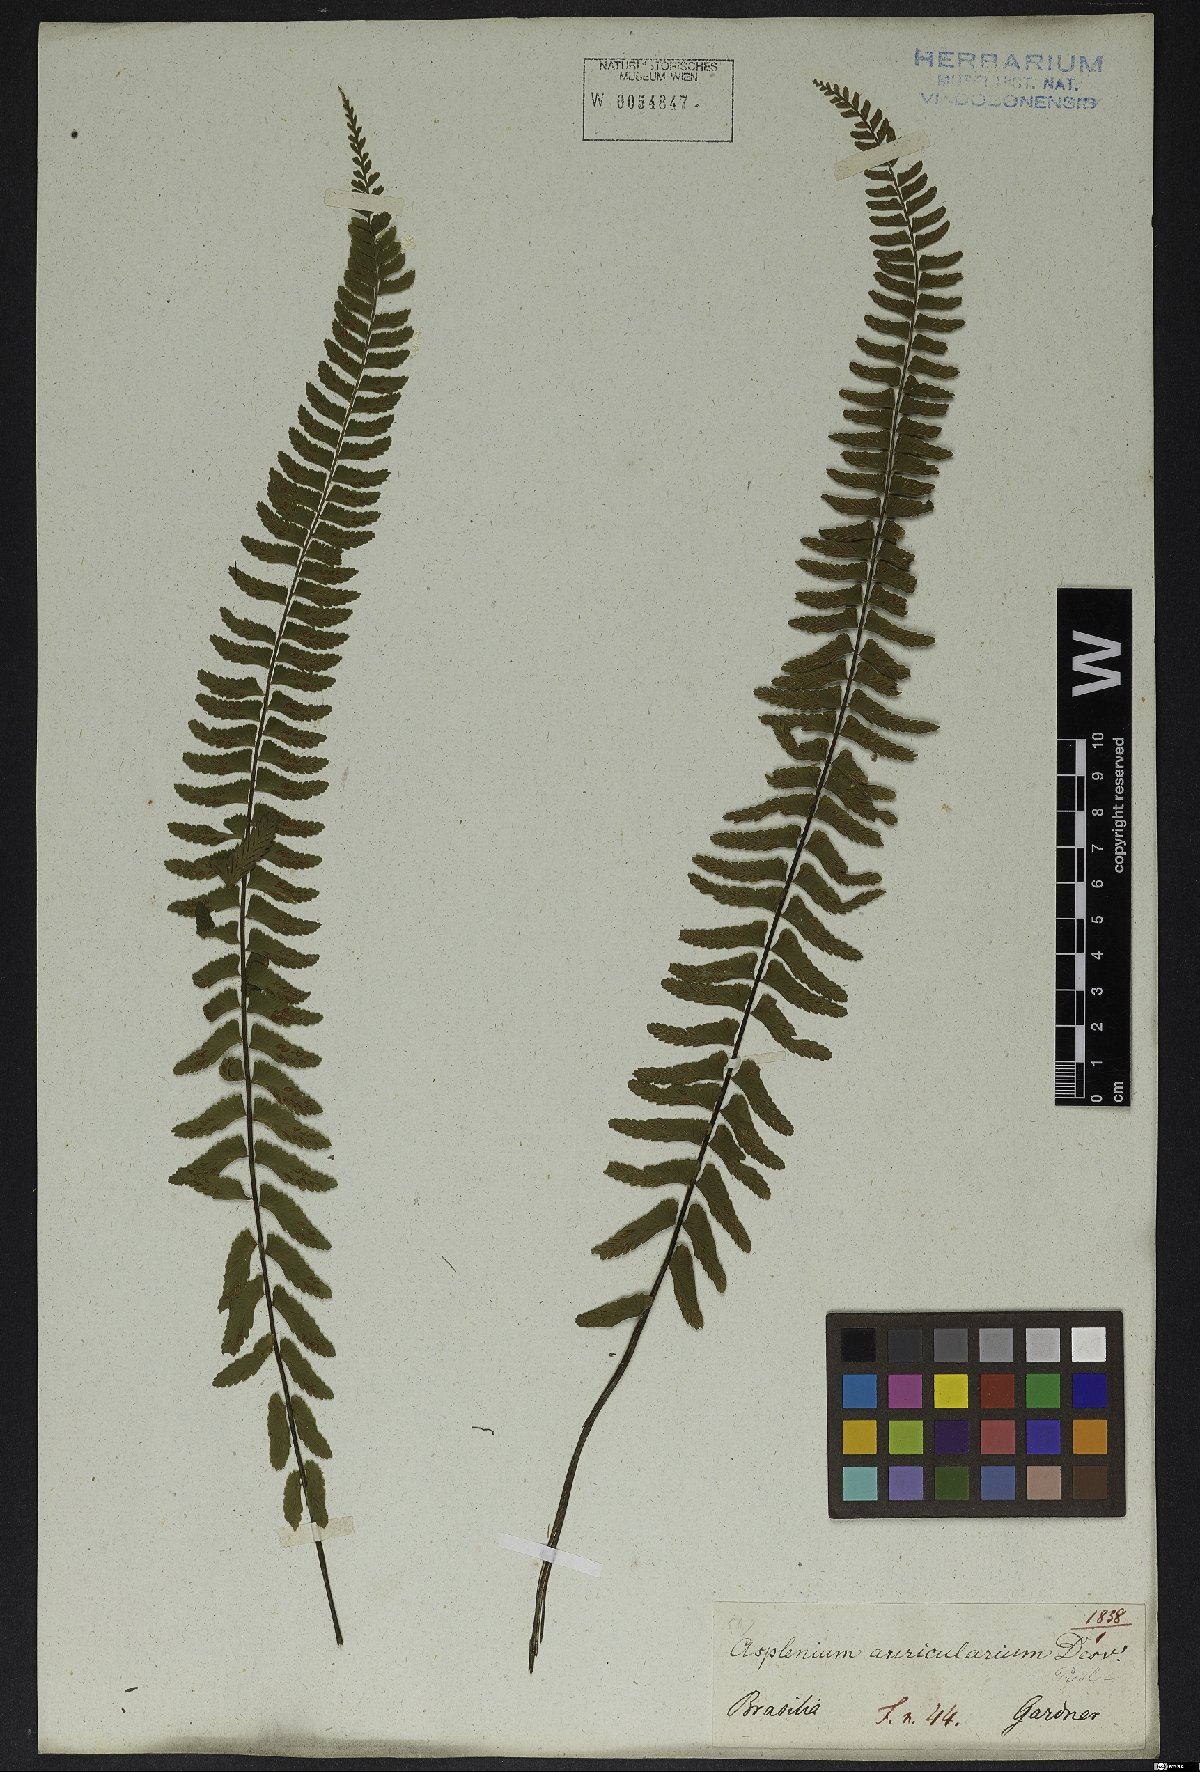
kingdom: Plantae
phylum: Tracheophyta
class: Polypodiopsida
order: Polypodiales
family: Aspleniaceae
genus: Asplenium
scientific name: Asplenium lunulatum
